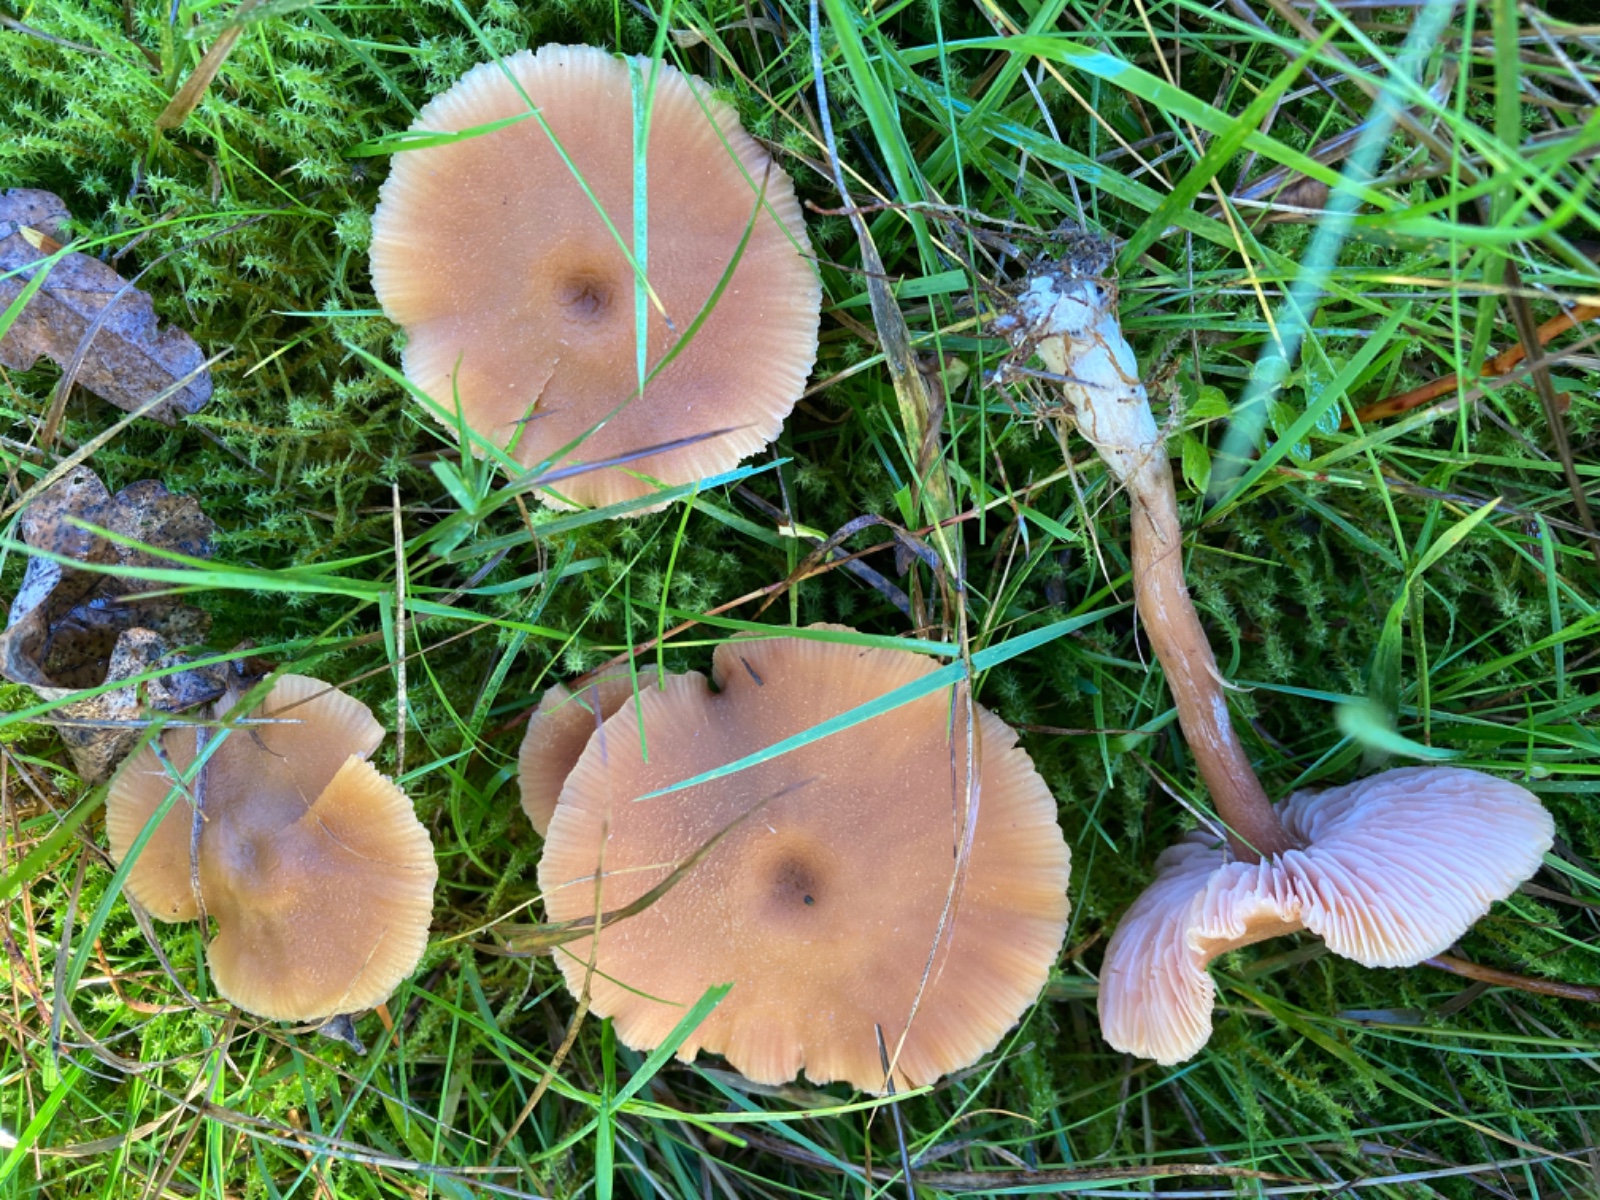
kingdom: Fungi
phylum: Basidiomycota
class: Agaricomycetes
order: Agaricales
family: Hydnangiaceae
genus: Laccaria
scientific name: Laccaria proxima
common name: stor ametysthat
